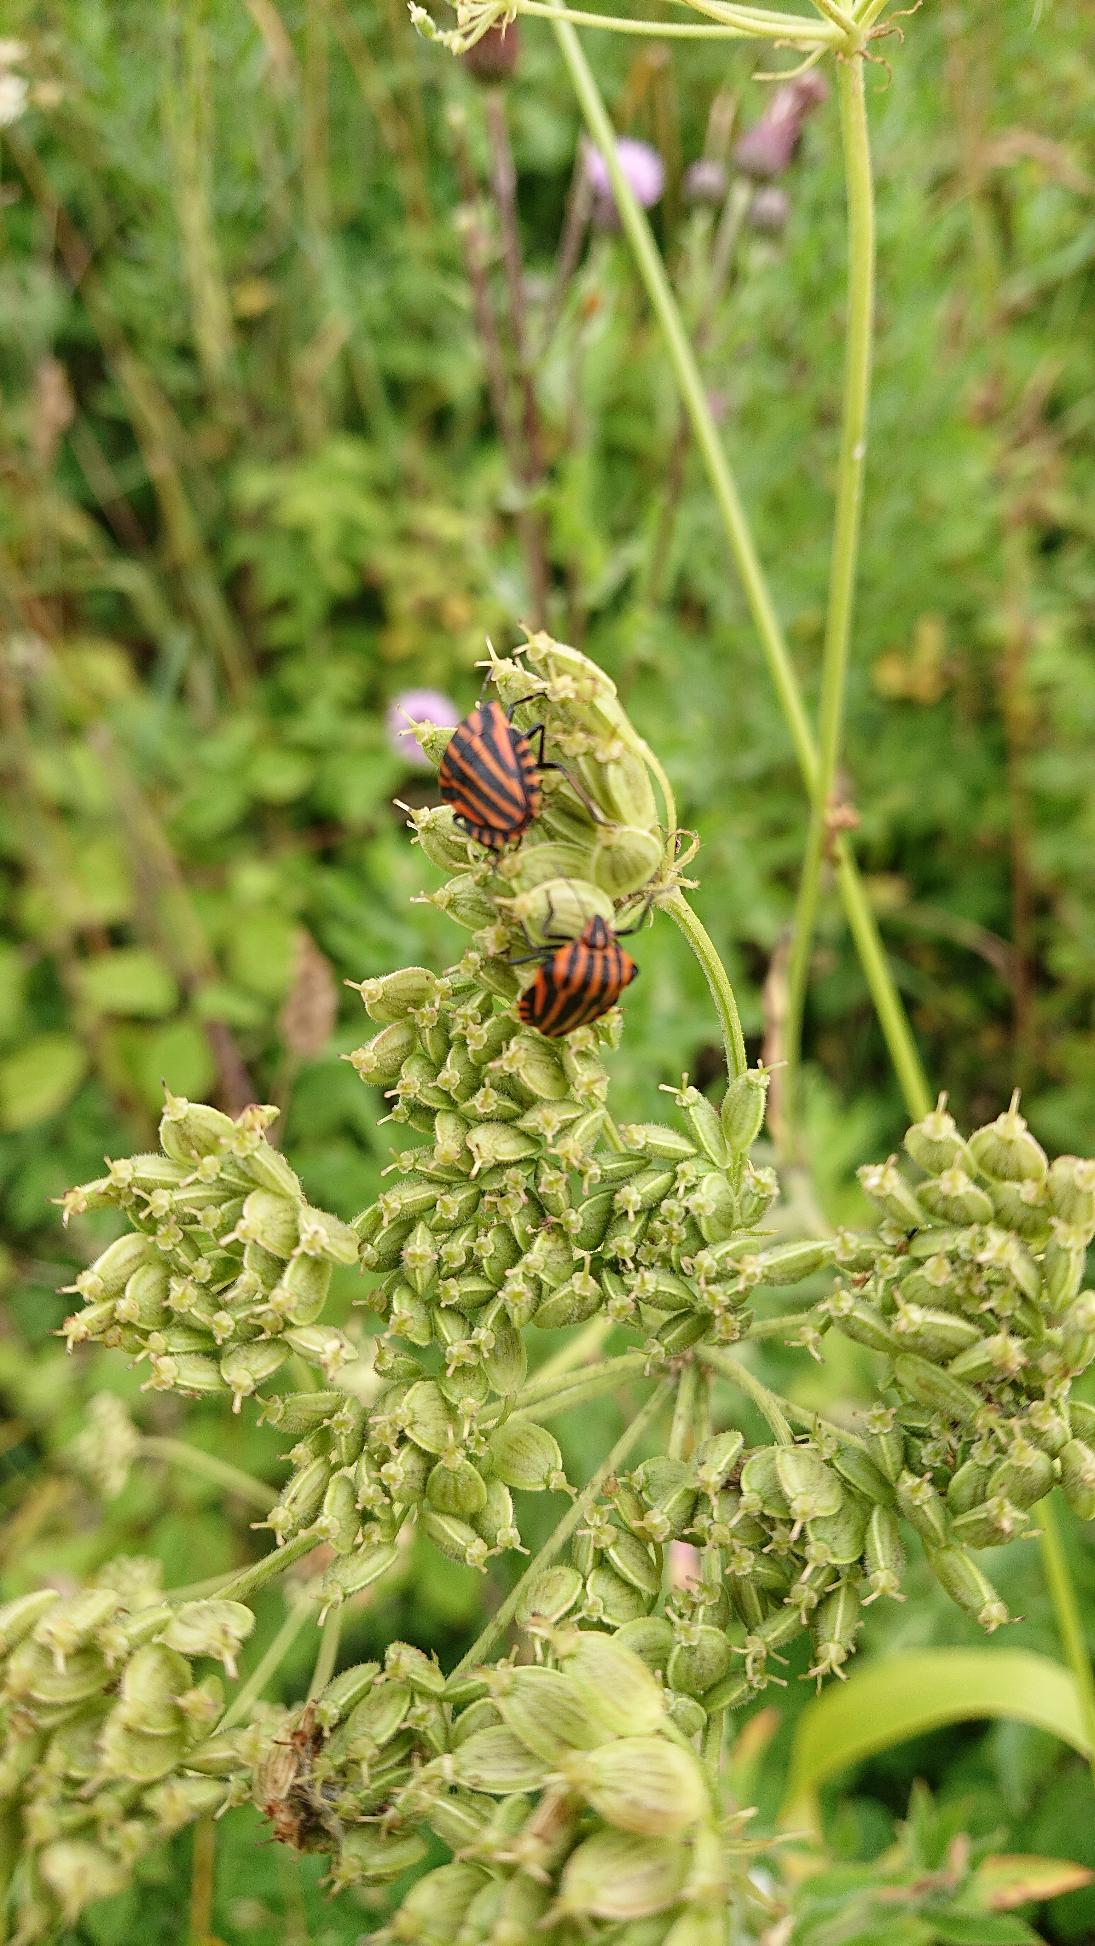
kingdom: Animalia
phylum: Arthropoda
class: Insecta
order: Hemiptera
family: Pentatomidae
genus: Graphosoma
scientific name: Graphosoma italicum
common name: Stribetæge
